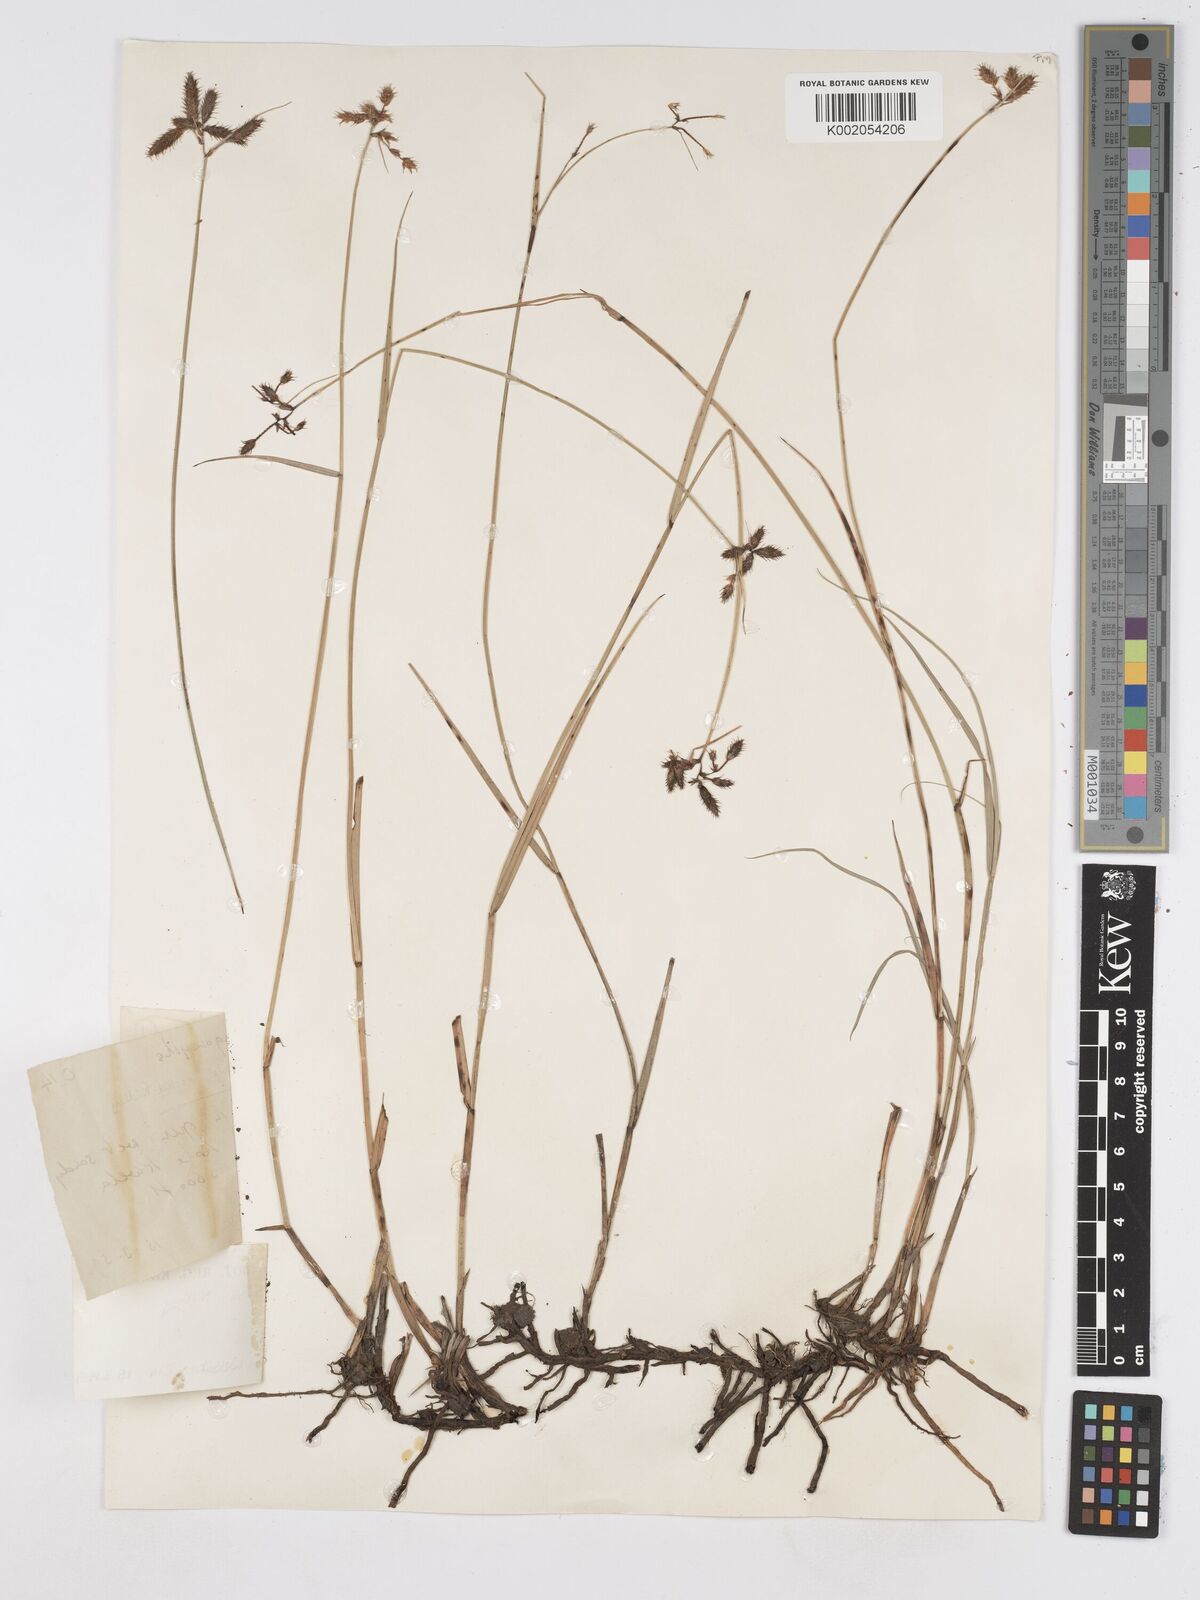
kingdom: Plantae
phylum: Tracheophyta
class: Liliopsida
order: Poales
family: Cyperaceae
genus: Fuirena
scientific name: Fuirena welwitschii
